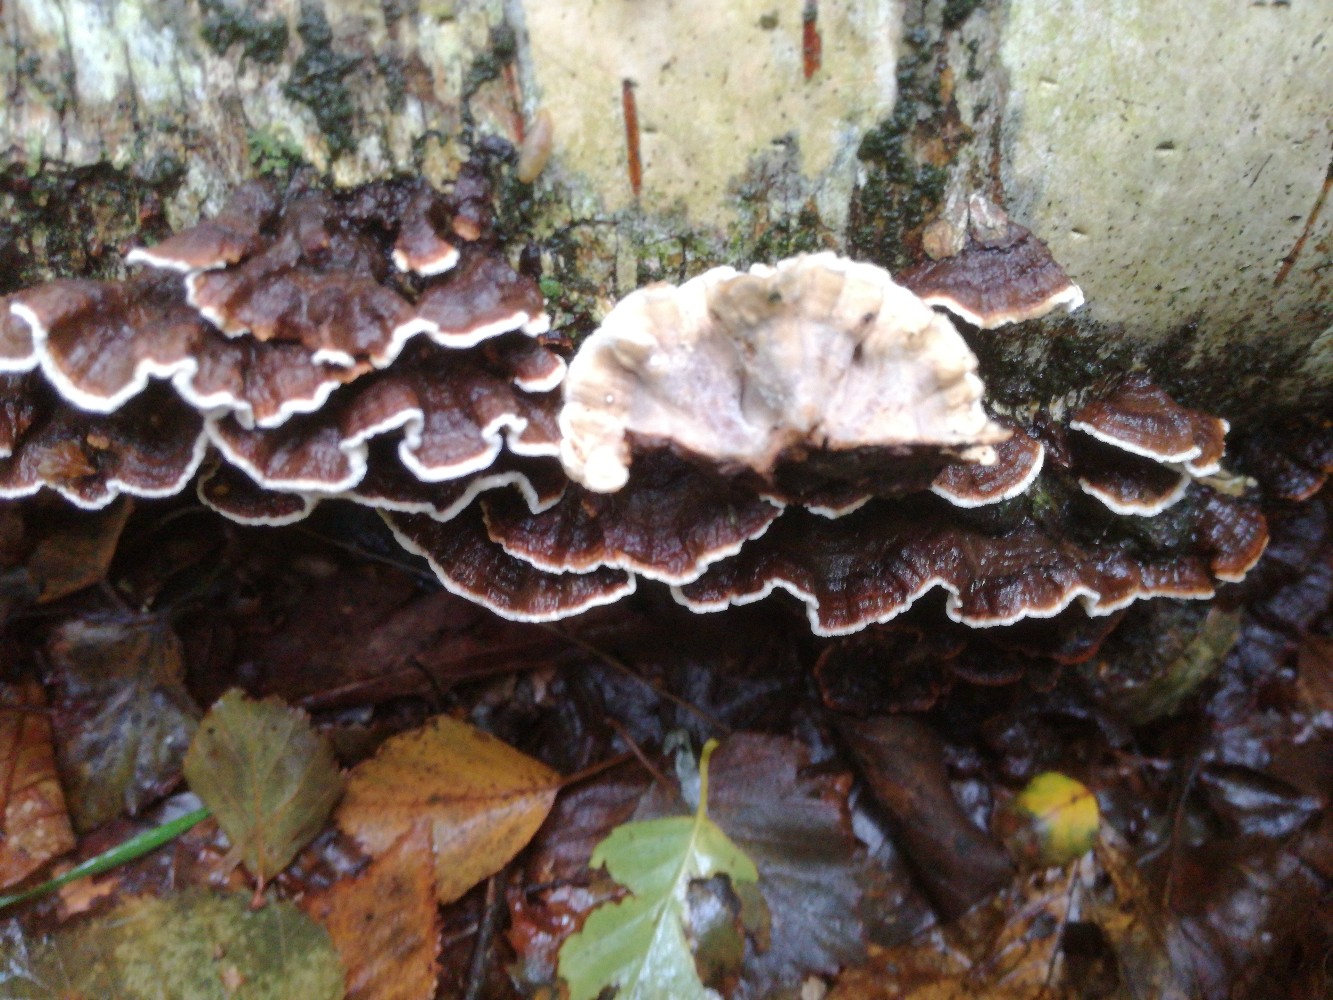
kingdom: Fungi
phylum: Basidiomycota
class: Agaricomycetes
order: Russulales
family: Hericiaceae
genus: Laxitextum
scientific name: Laxitextum bicolor
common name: tvefarvet filtskind
